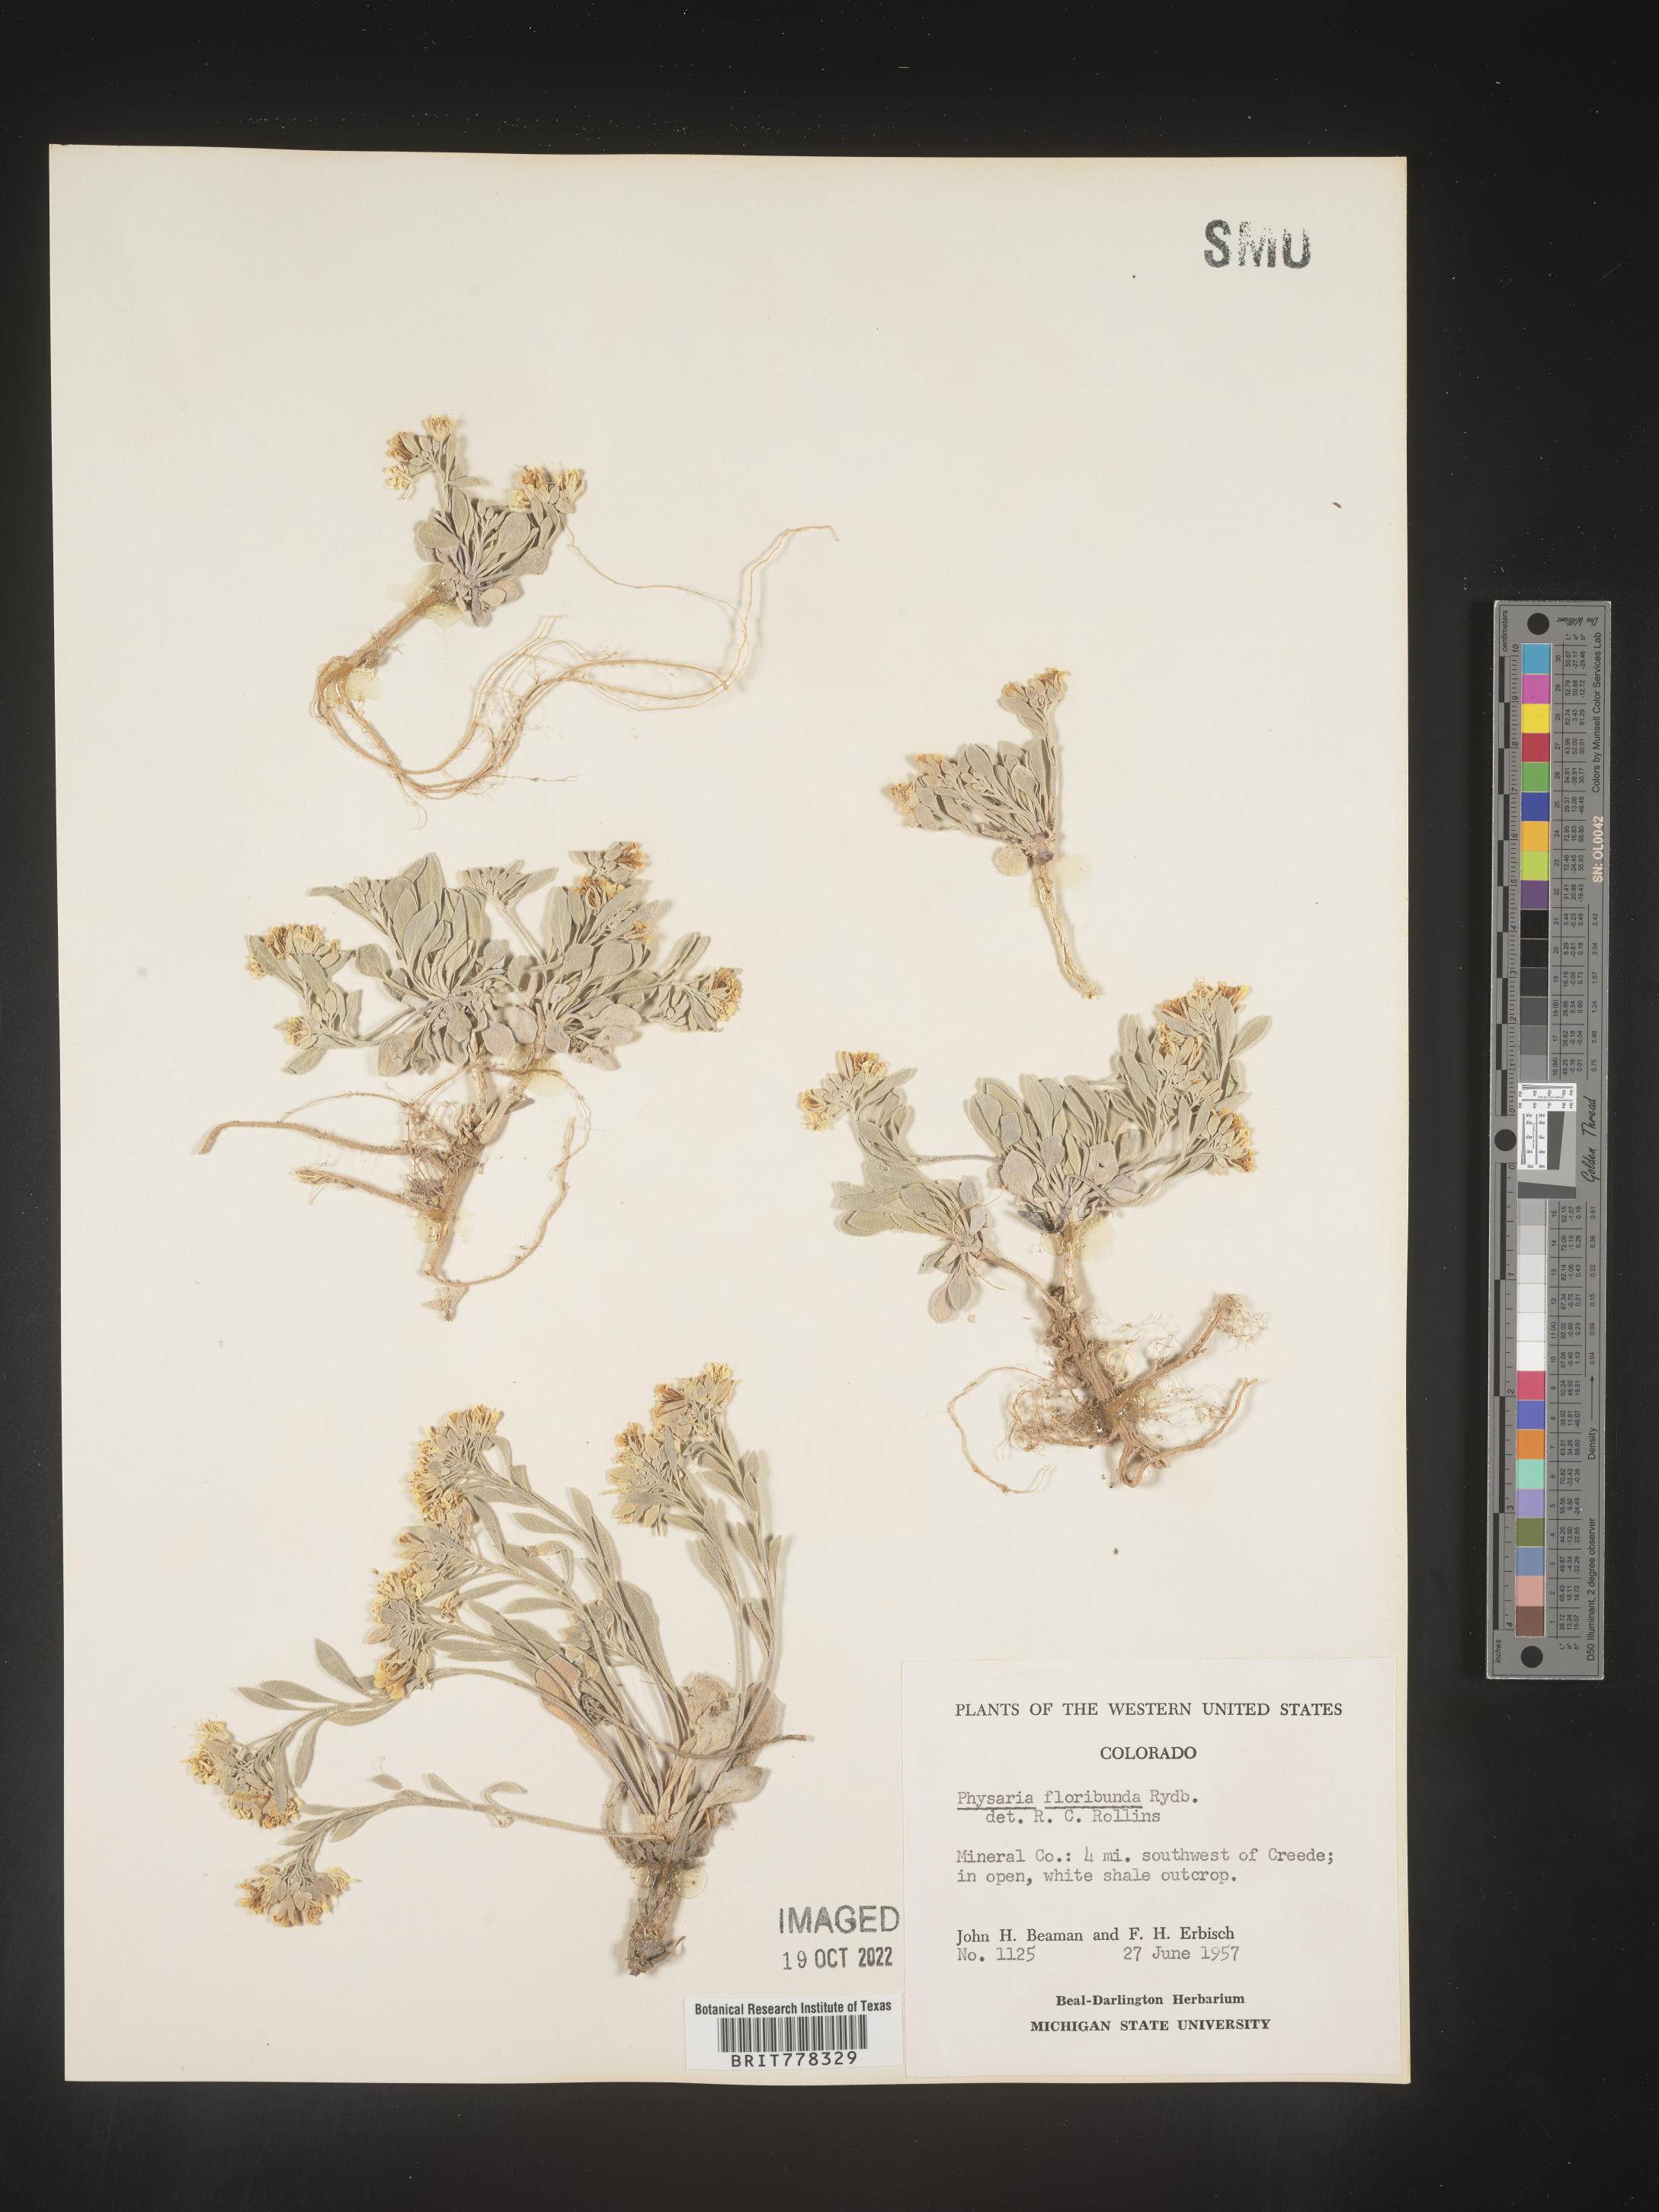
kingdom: Plantae
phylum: Tracheophyta
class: Magnoliopsida
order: Brassicales
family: Brassicaceae
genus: Physaria
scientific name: Physaria
